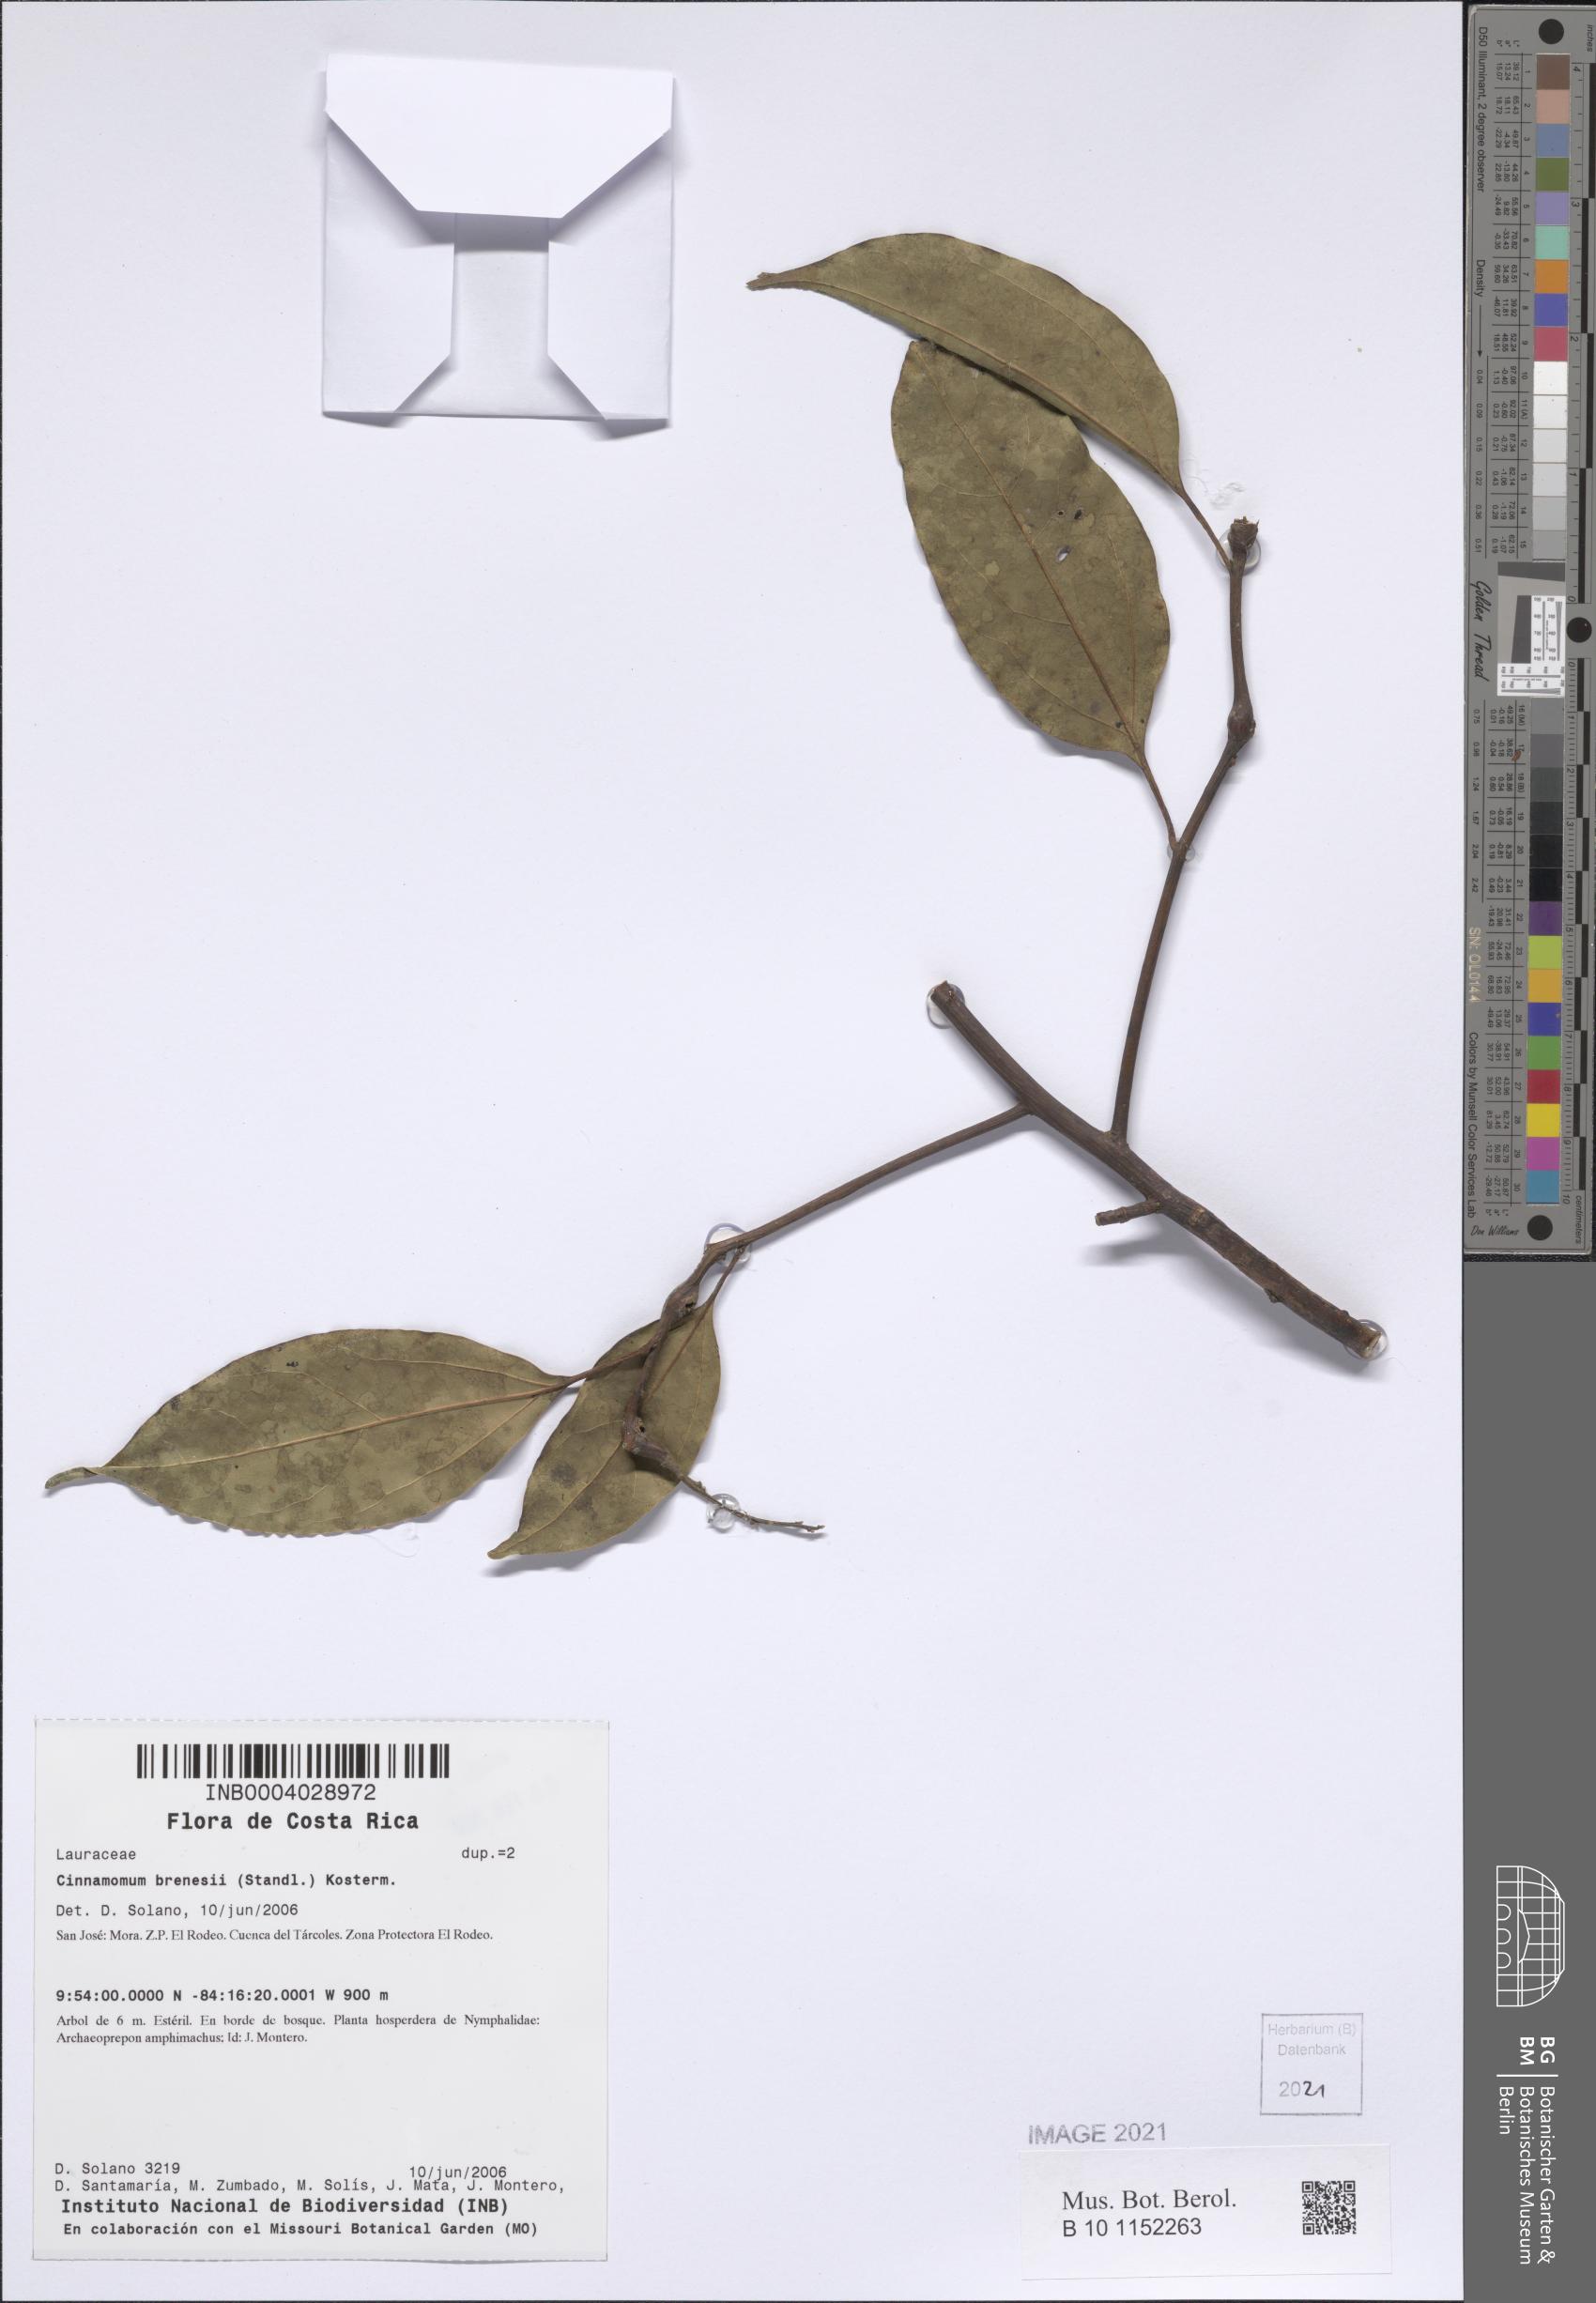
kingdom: Plantae
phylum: Tracheophyta
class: Magnoliopsida
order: Laurales
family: Lauraceae
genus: Aiouea
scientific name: Aiouea brenesii
